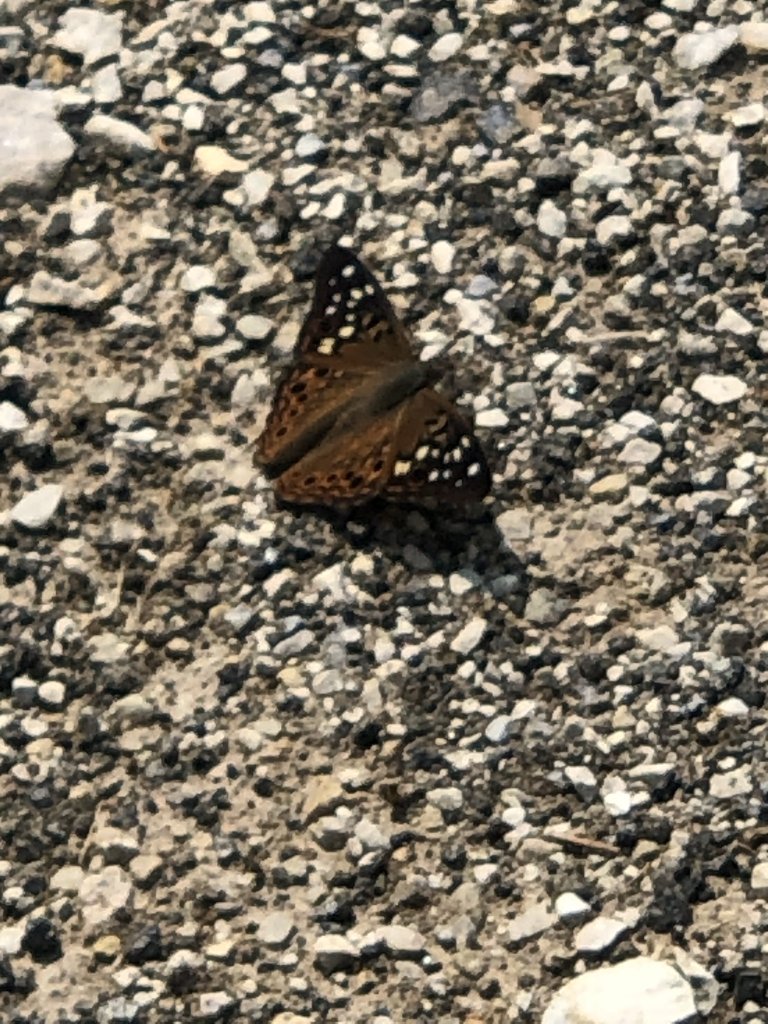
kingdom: Animalia
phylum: Arthropoda
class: Insecta
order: Lepidoptera
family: Nymphalidae
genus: Asterocampa
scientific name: Asterocampa celtis
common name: Hackberry Emperor
